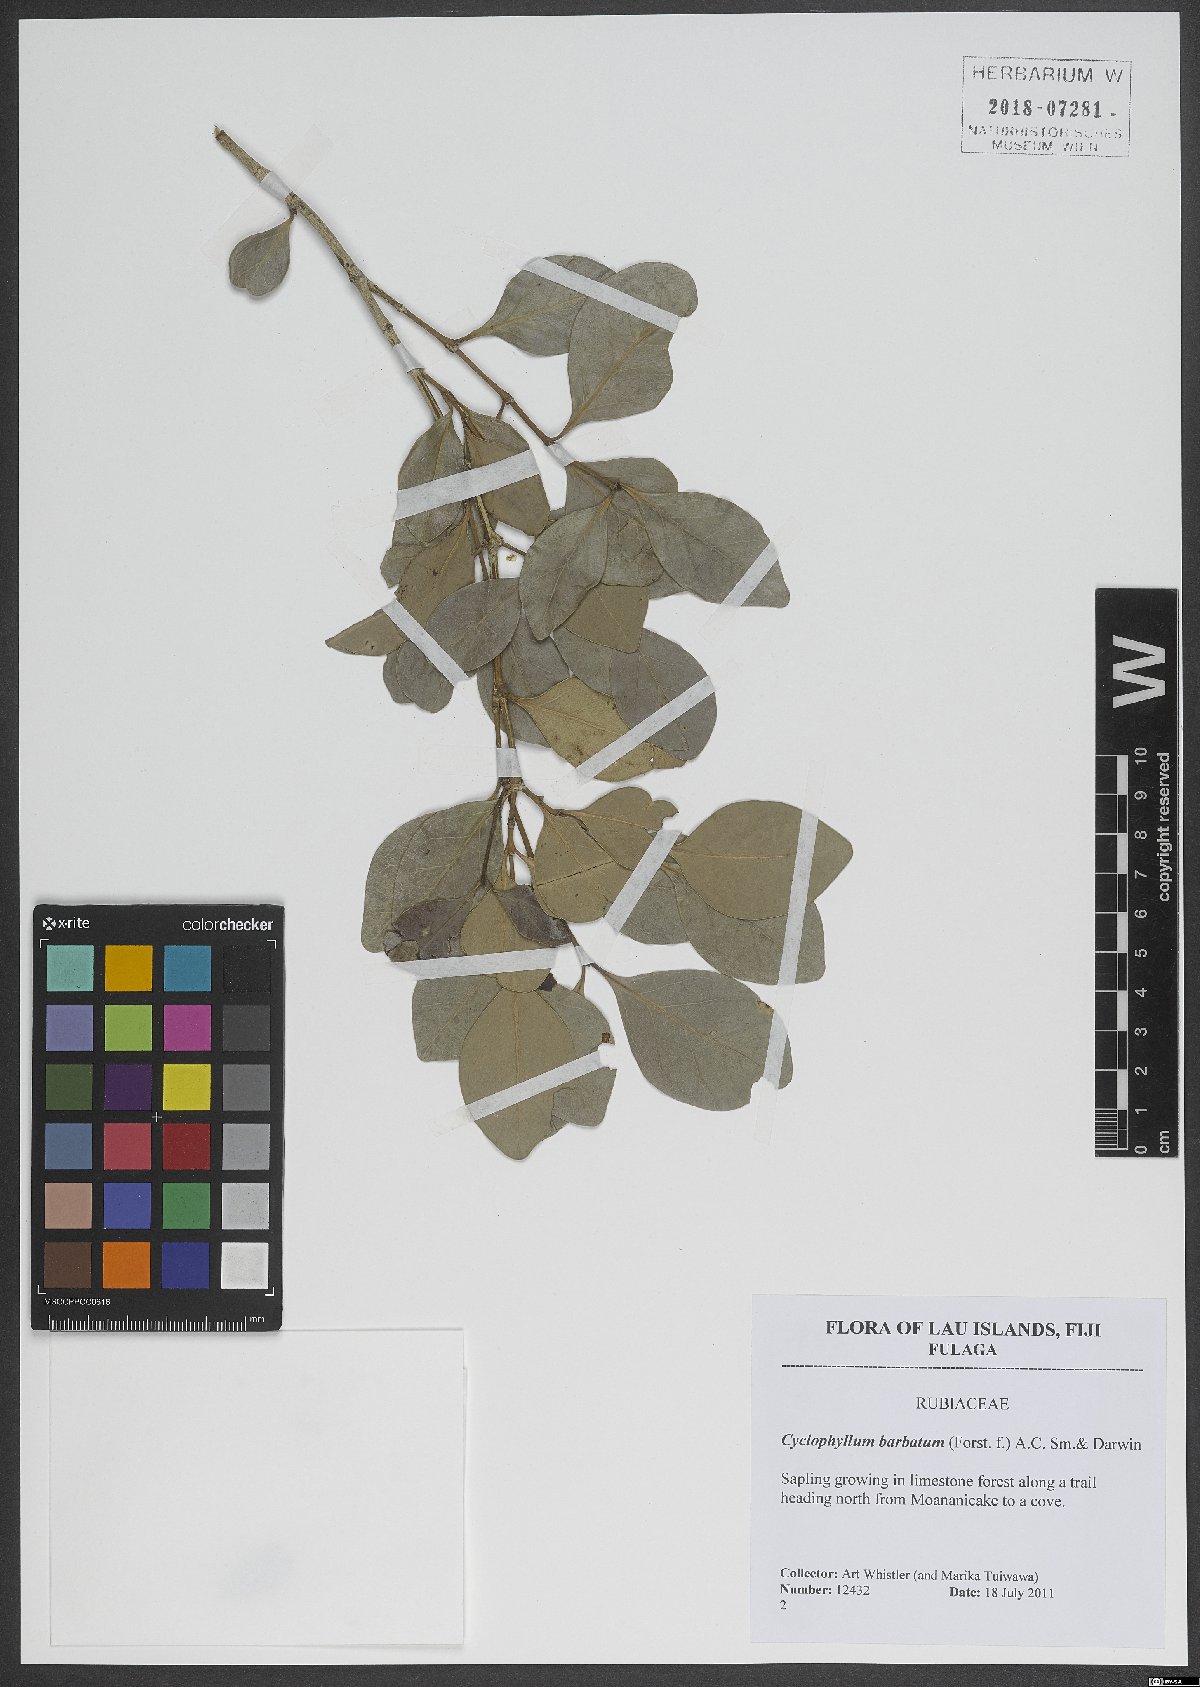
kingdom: Plantae
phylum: Tracheophyta
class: Magnoliopsida
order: Gentianales
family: Rubiaceae
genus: Cyclophyllum
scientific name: Cyclophyllum barbatum
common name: Cyclophyllum
